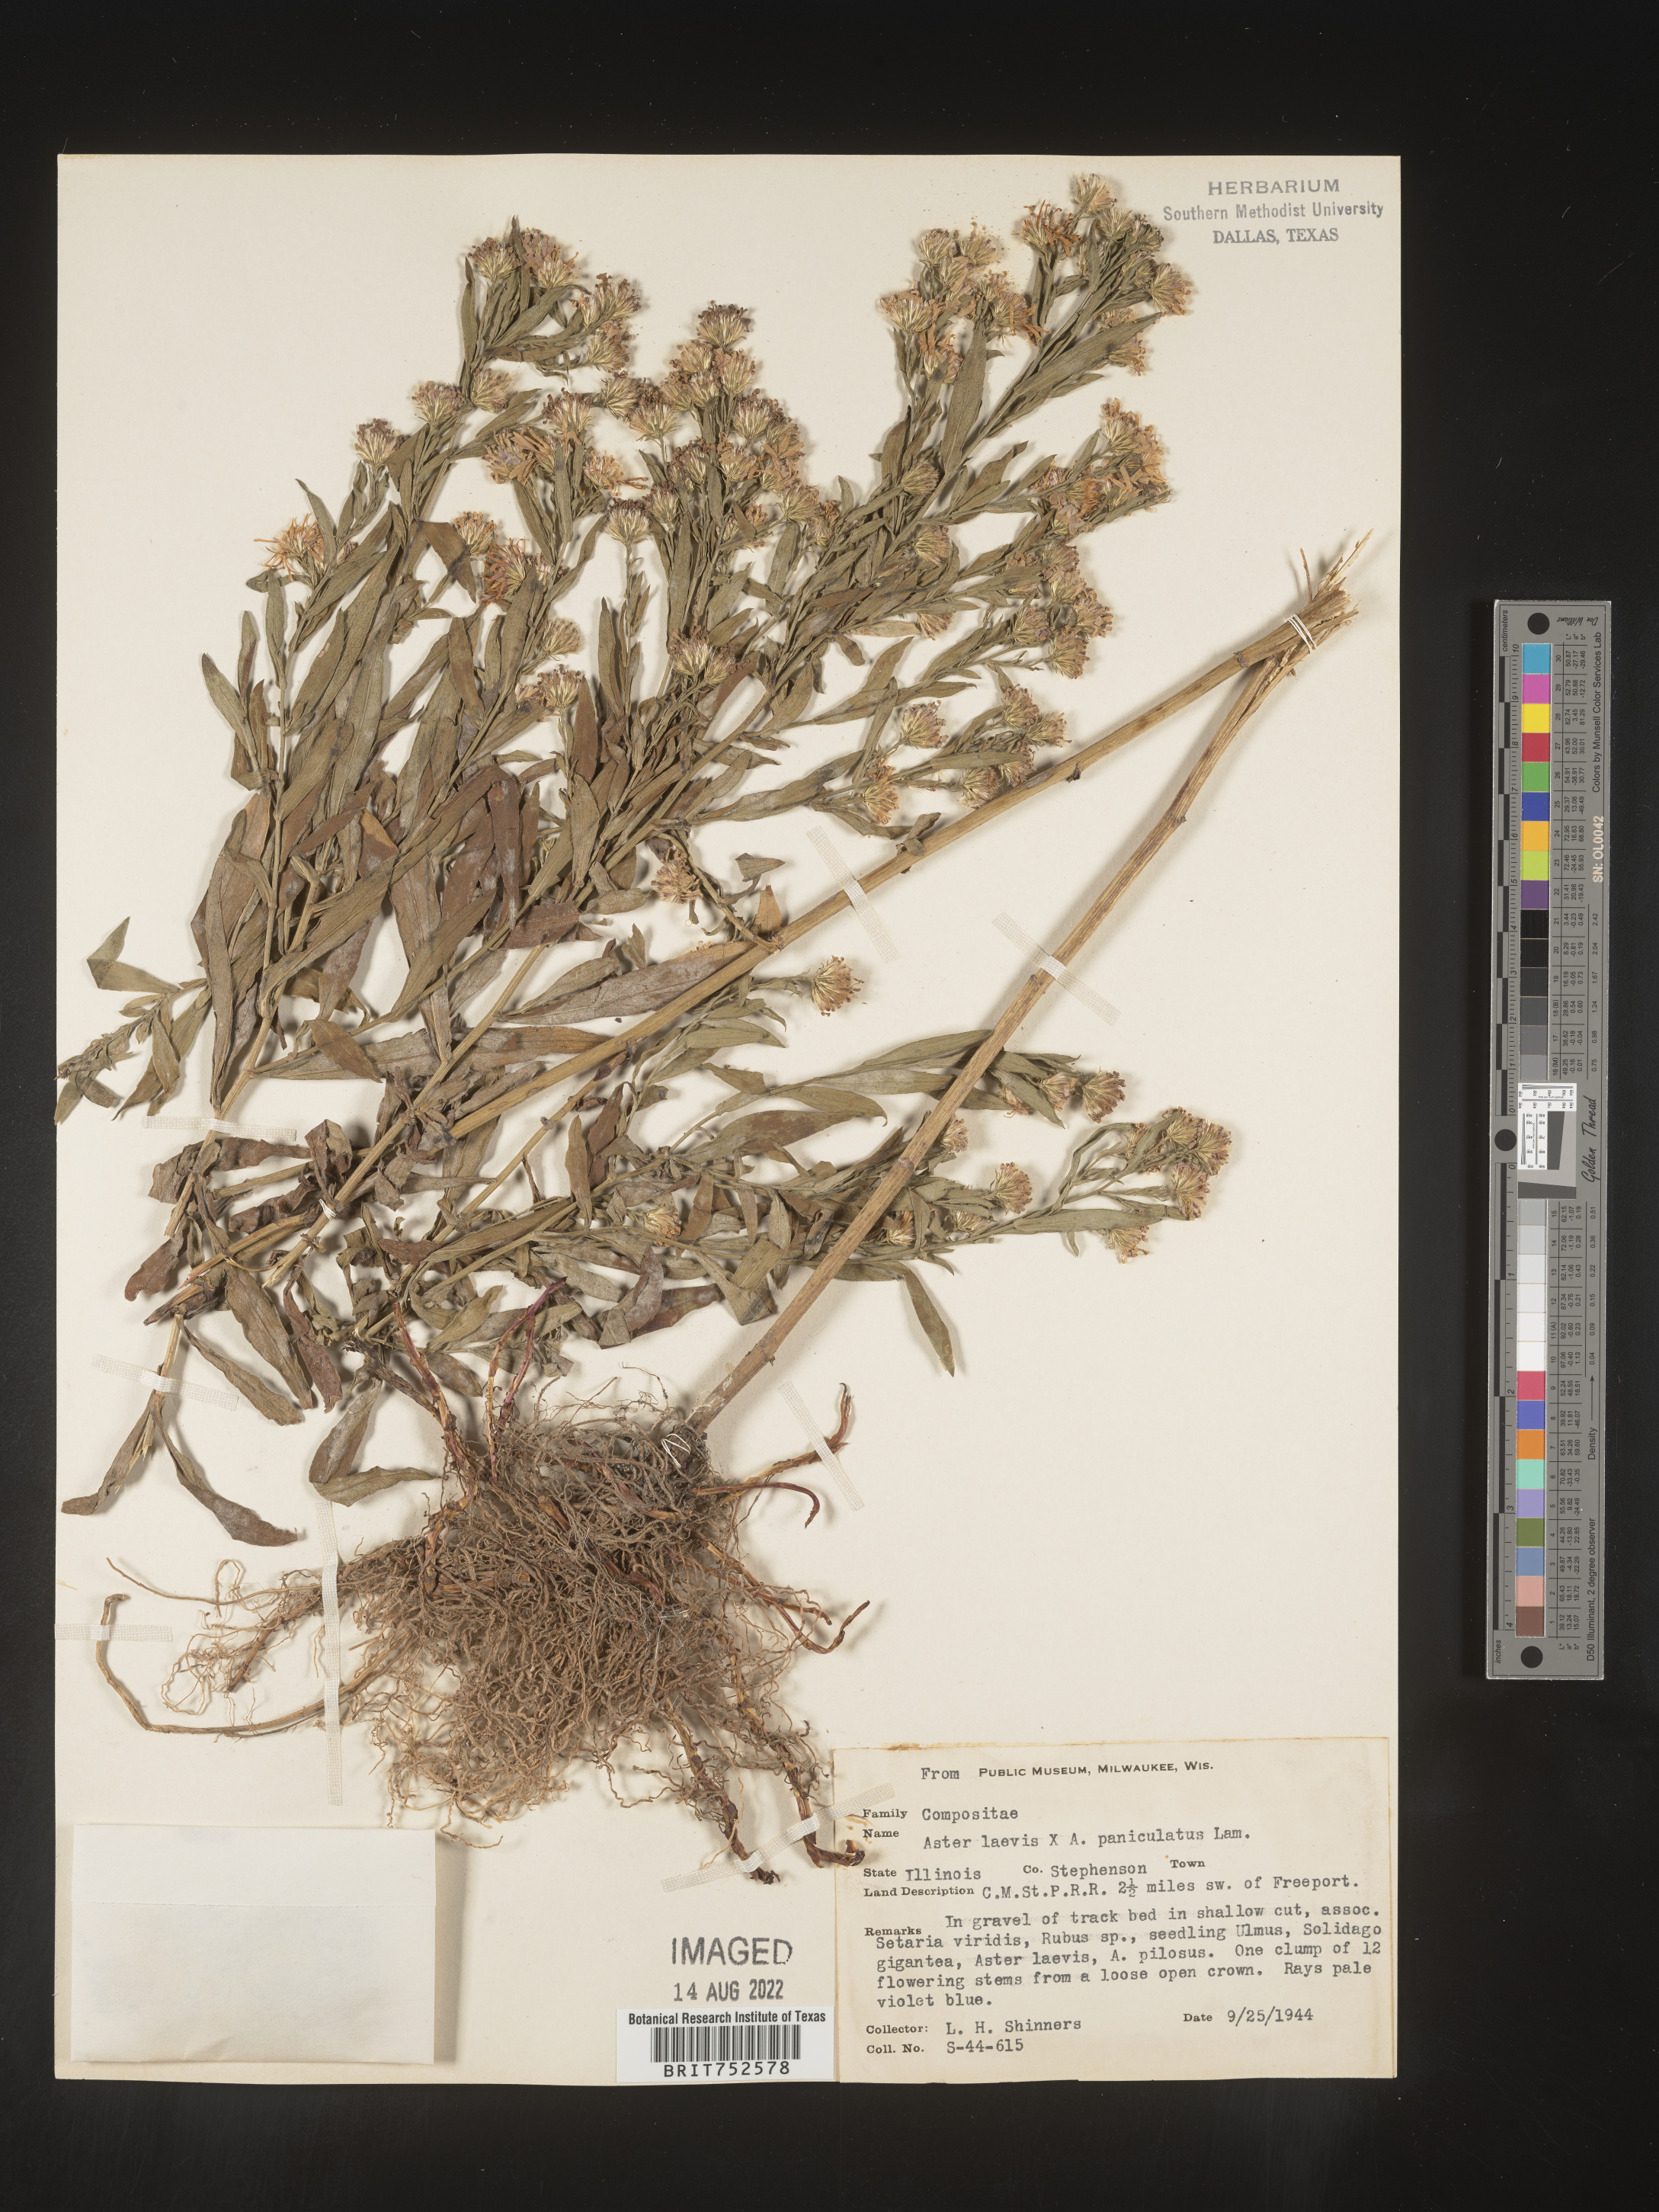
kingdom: Plantae
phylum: Tracheophyta
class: Magnoliopsida
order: Asterales
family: Asteraceae
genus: Symphyotrichum
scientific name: Symphyotrichum laeve
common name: Glaucous aster
